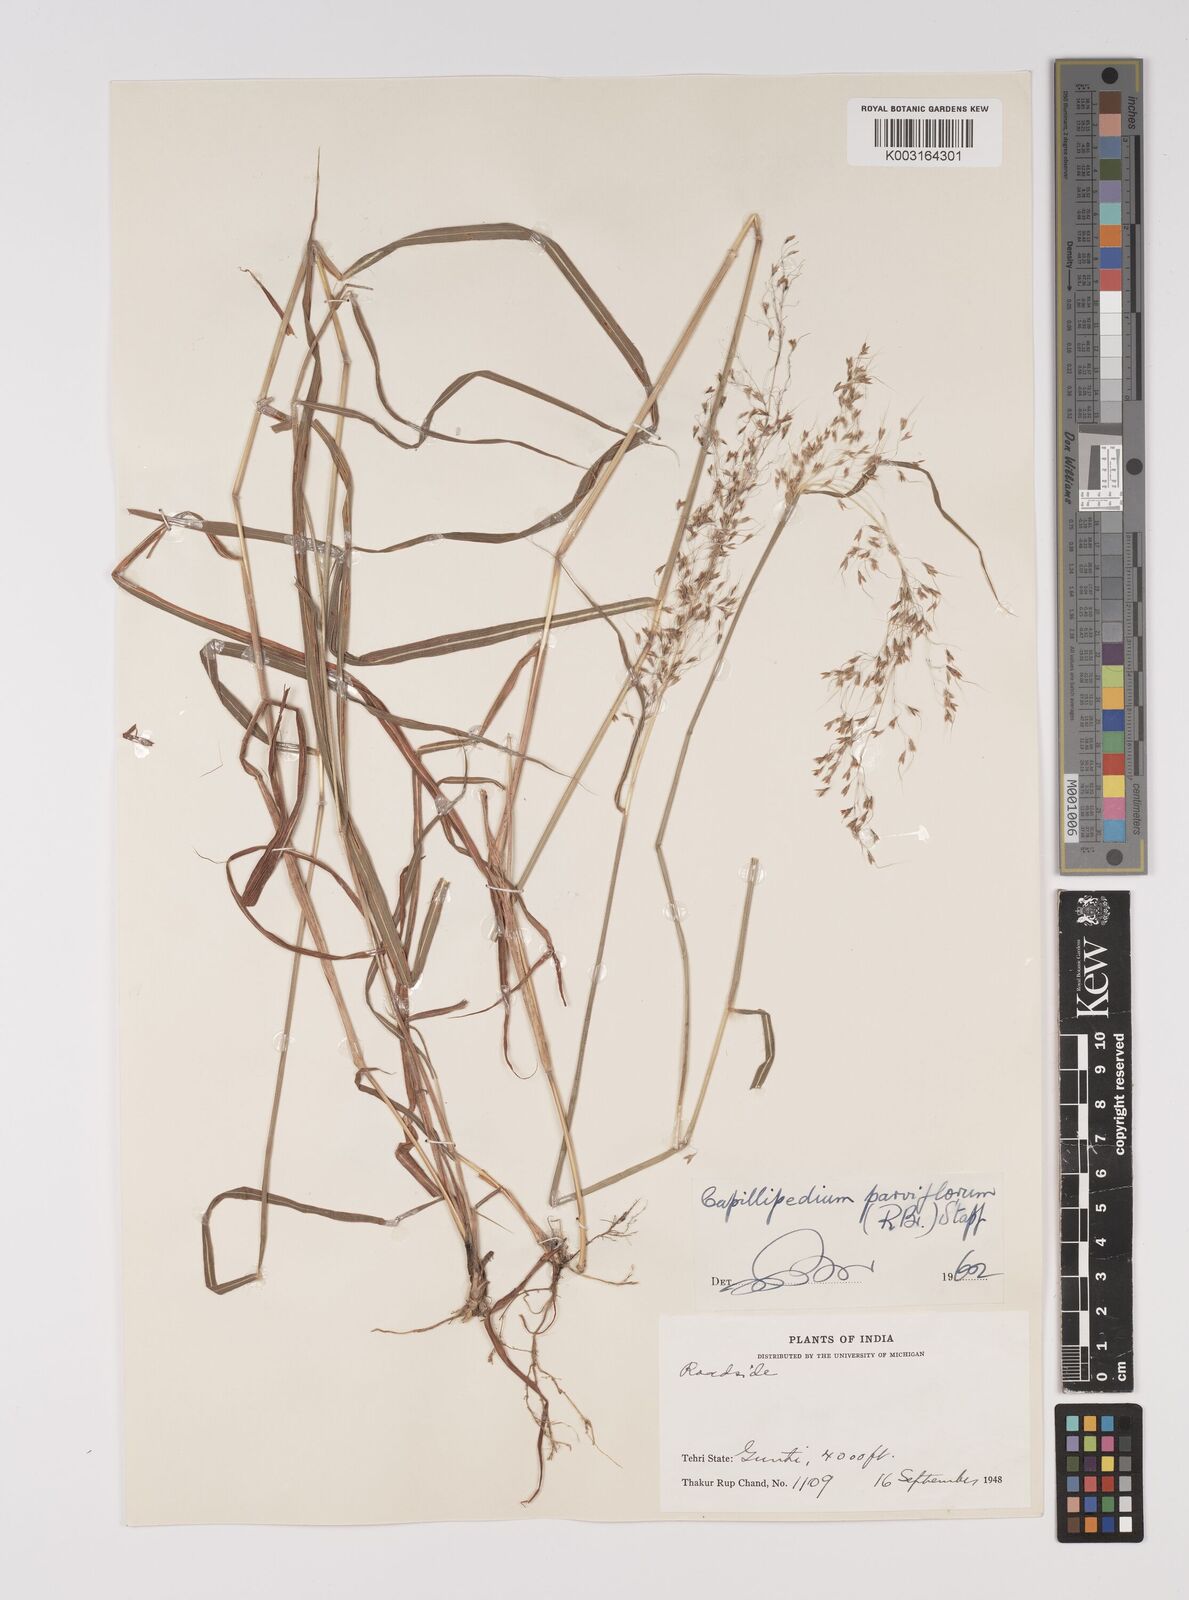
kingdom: Plantae
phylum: Tracheophyta
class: Liliopsida
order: Poales
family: Poaceae
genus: Capillipedium
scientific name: Capillipedium parviflorum
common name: Golden-beard
